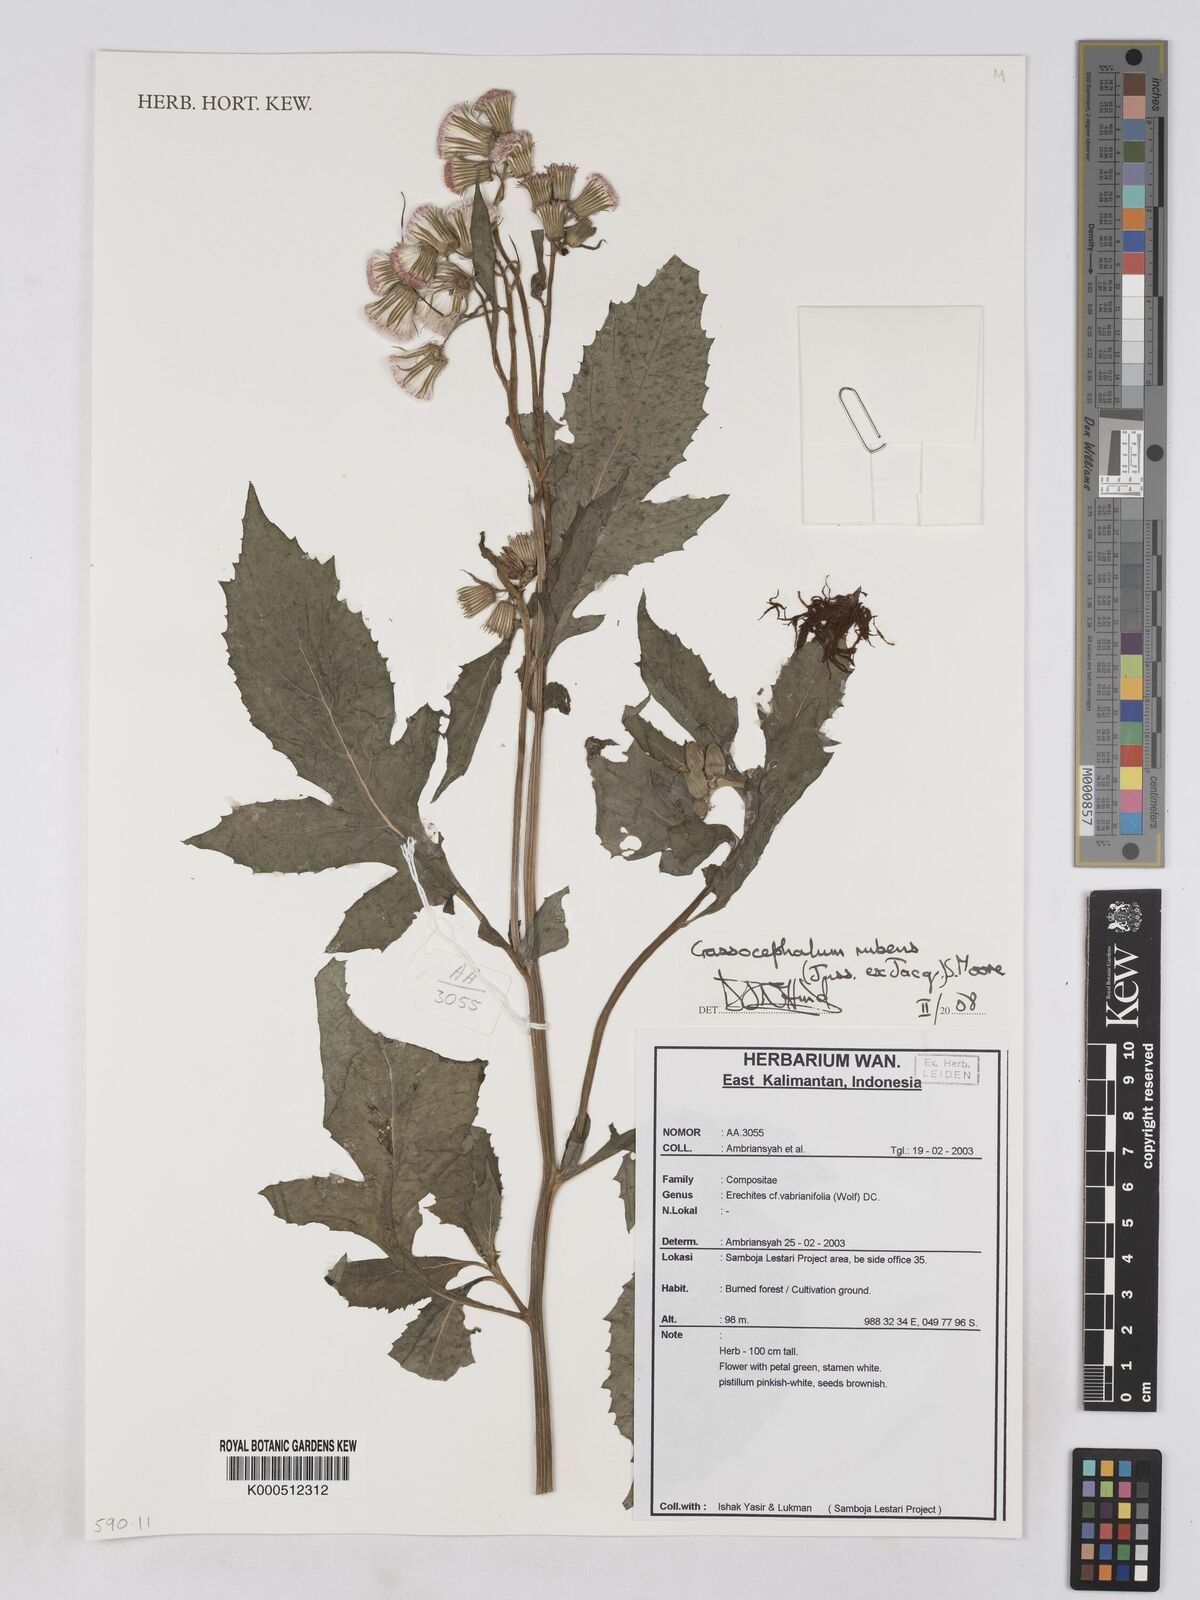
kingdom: Plantae
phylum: Tracheophyta
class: Magnoliopsida
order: Asterales
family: Asteraceae
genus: Crassocephalum
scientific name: Crassocephalum rubens
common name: Yoruban bologi
